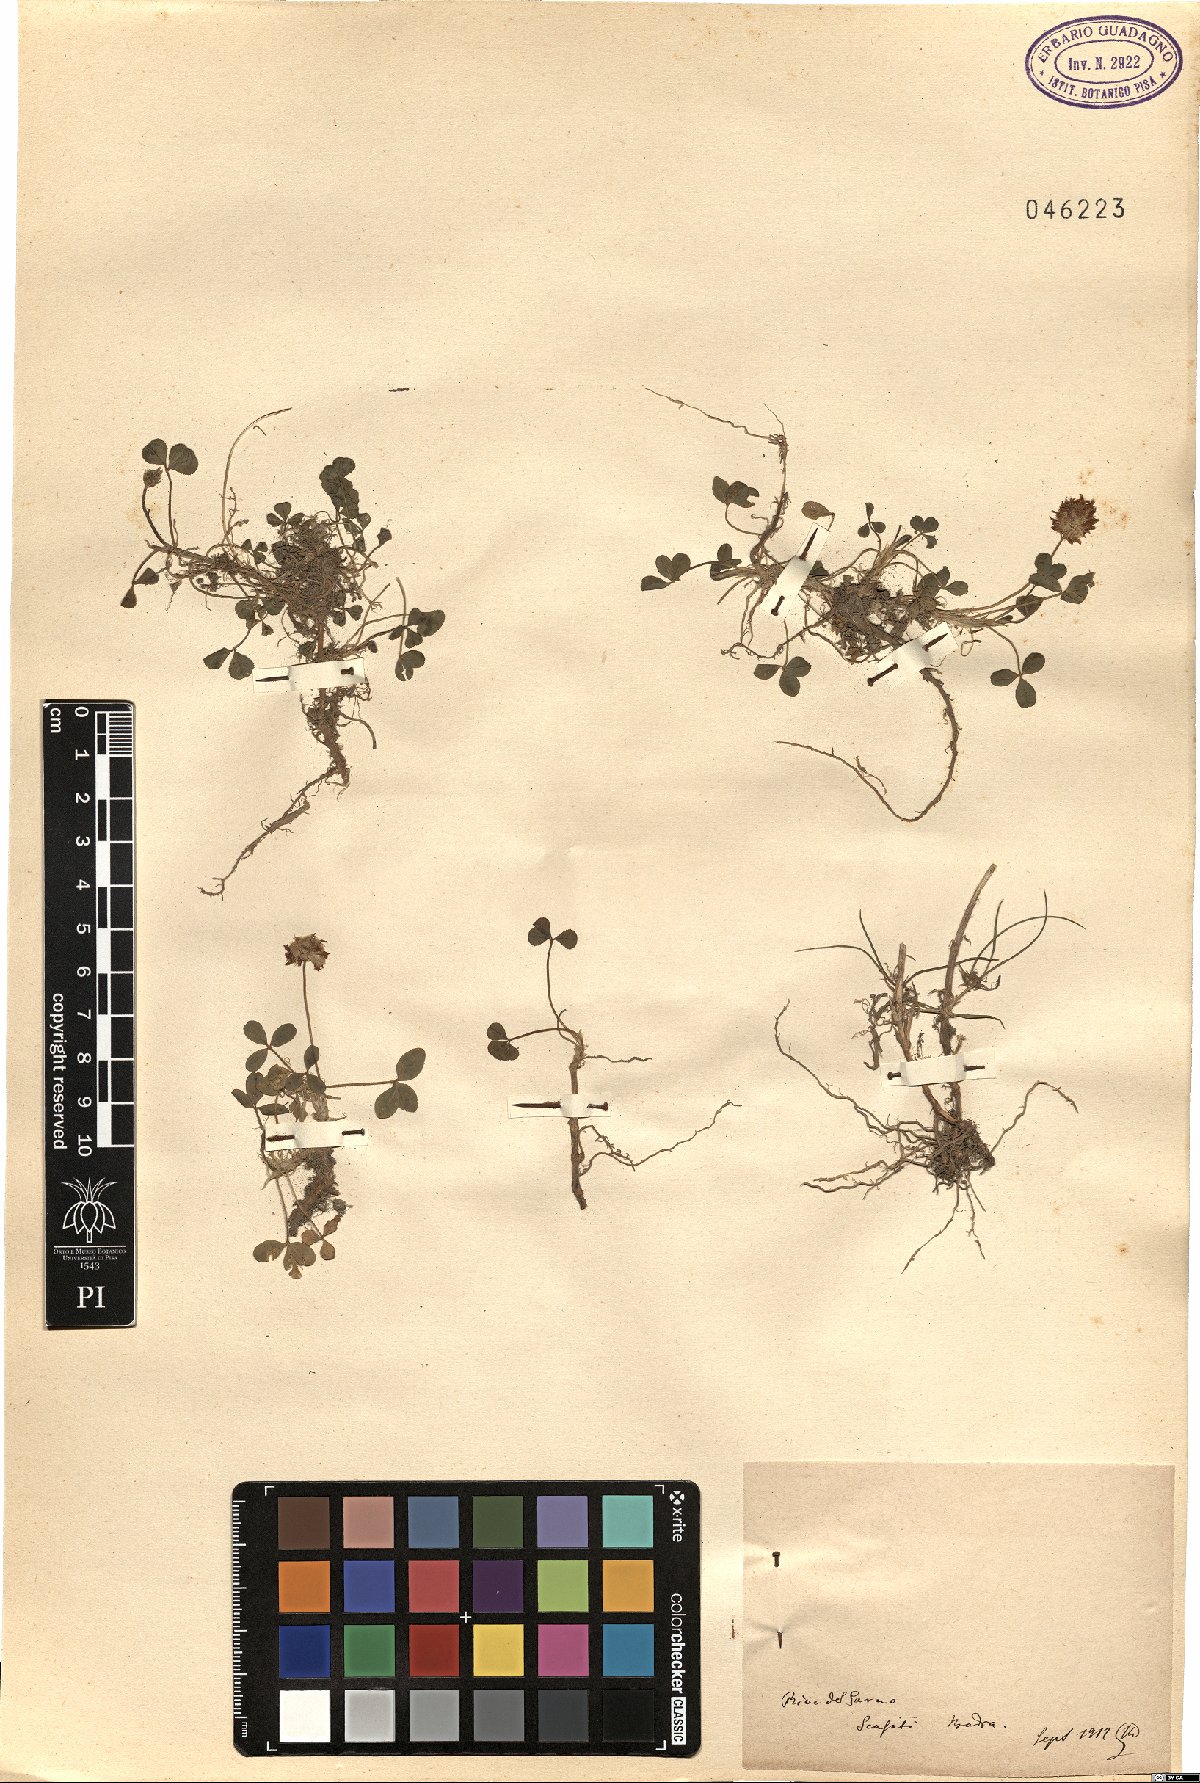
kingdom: Plantae
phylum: Tracheophyta
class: Magnoliopsida
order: Fabales
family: Fabaceae
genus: Trifolium
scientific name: Trifolium
